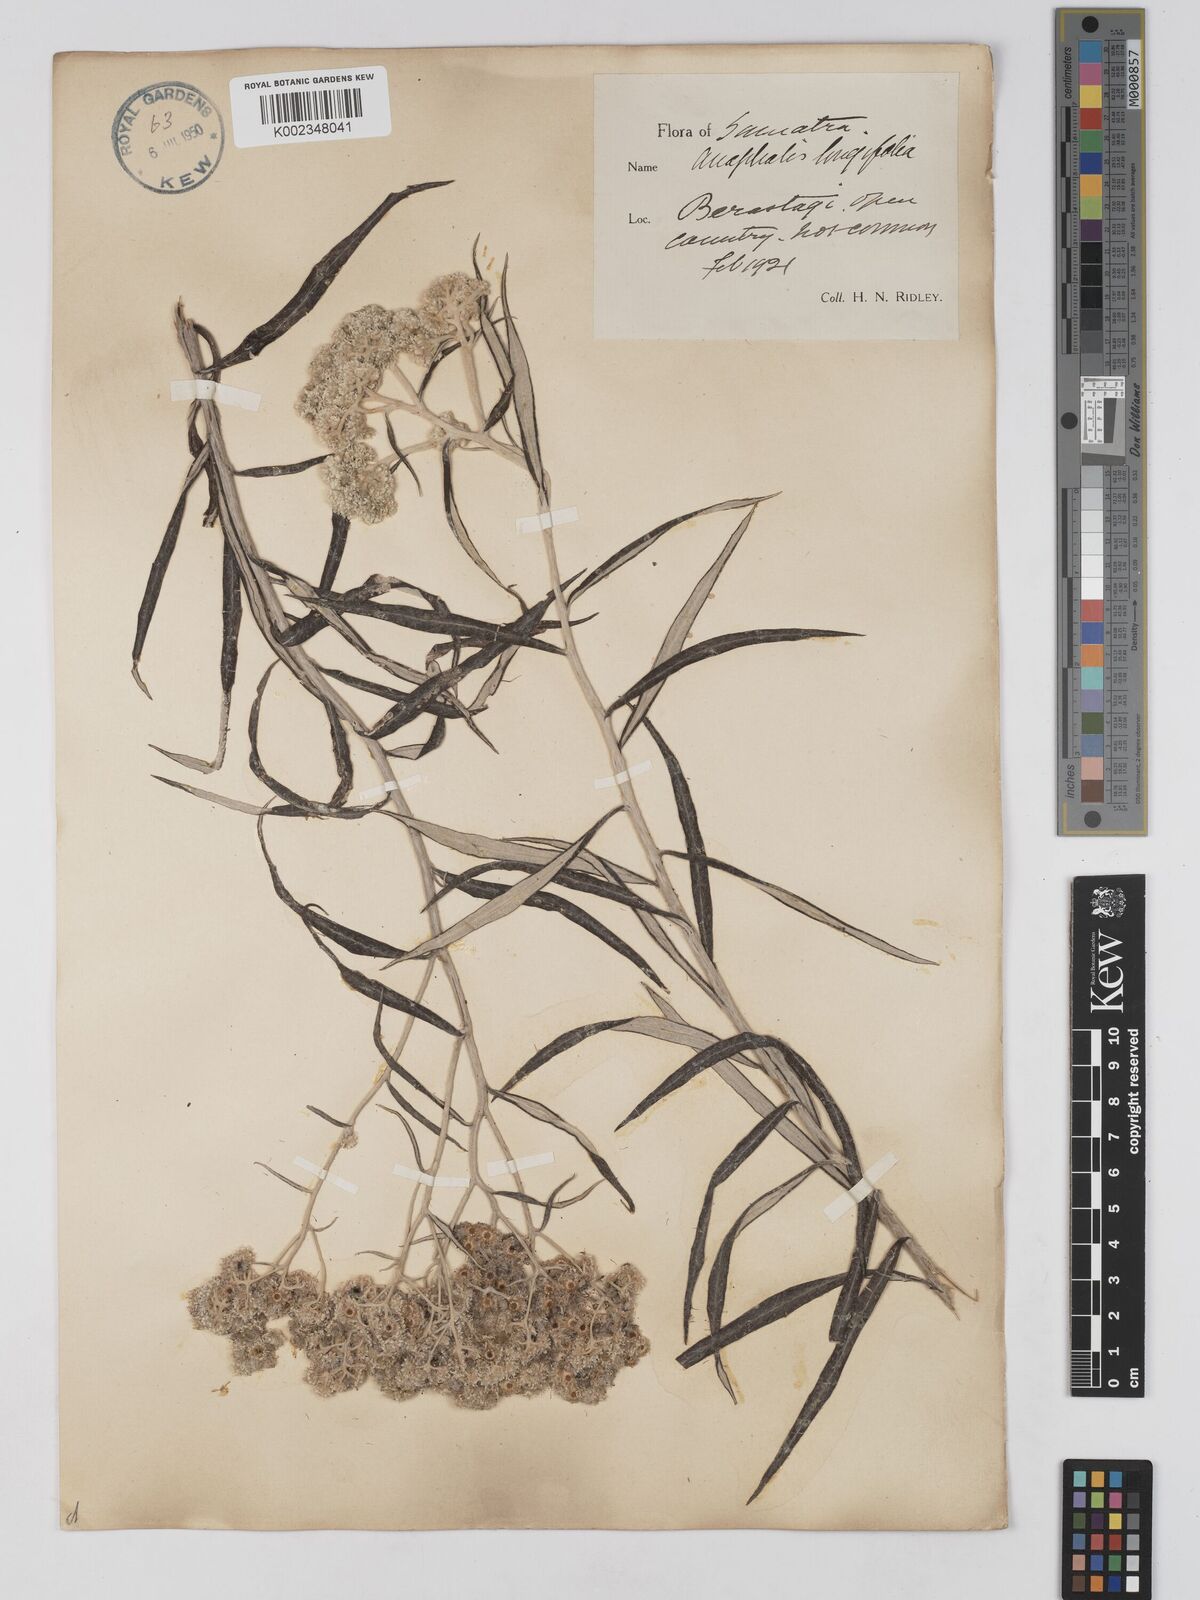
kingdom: Plantae
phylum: Tracheophyta
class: Magnoliopsida
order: Asterales
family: Asteraceae
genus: Anaphalis
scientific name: Anaphalis longifolia
